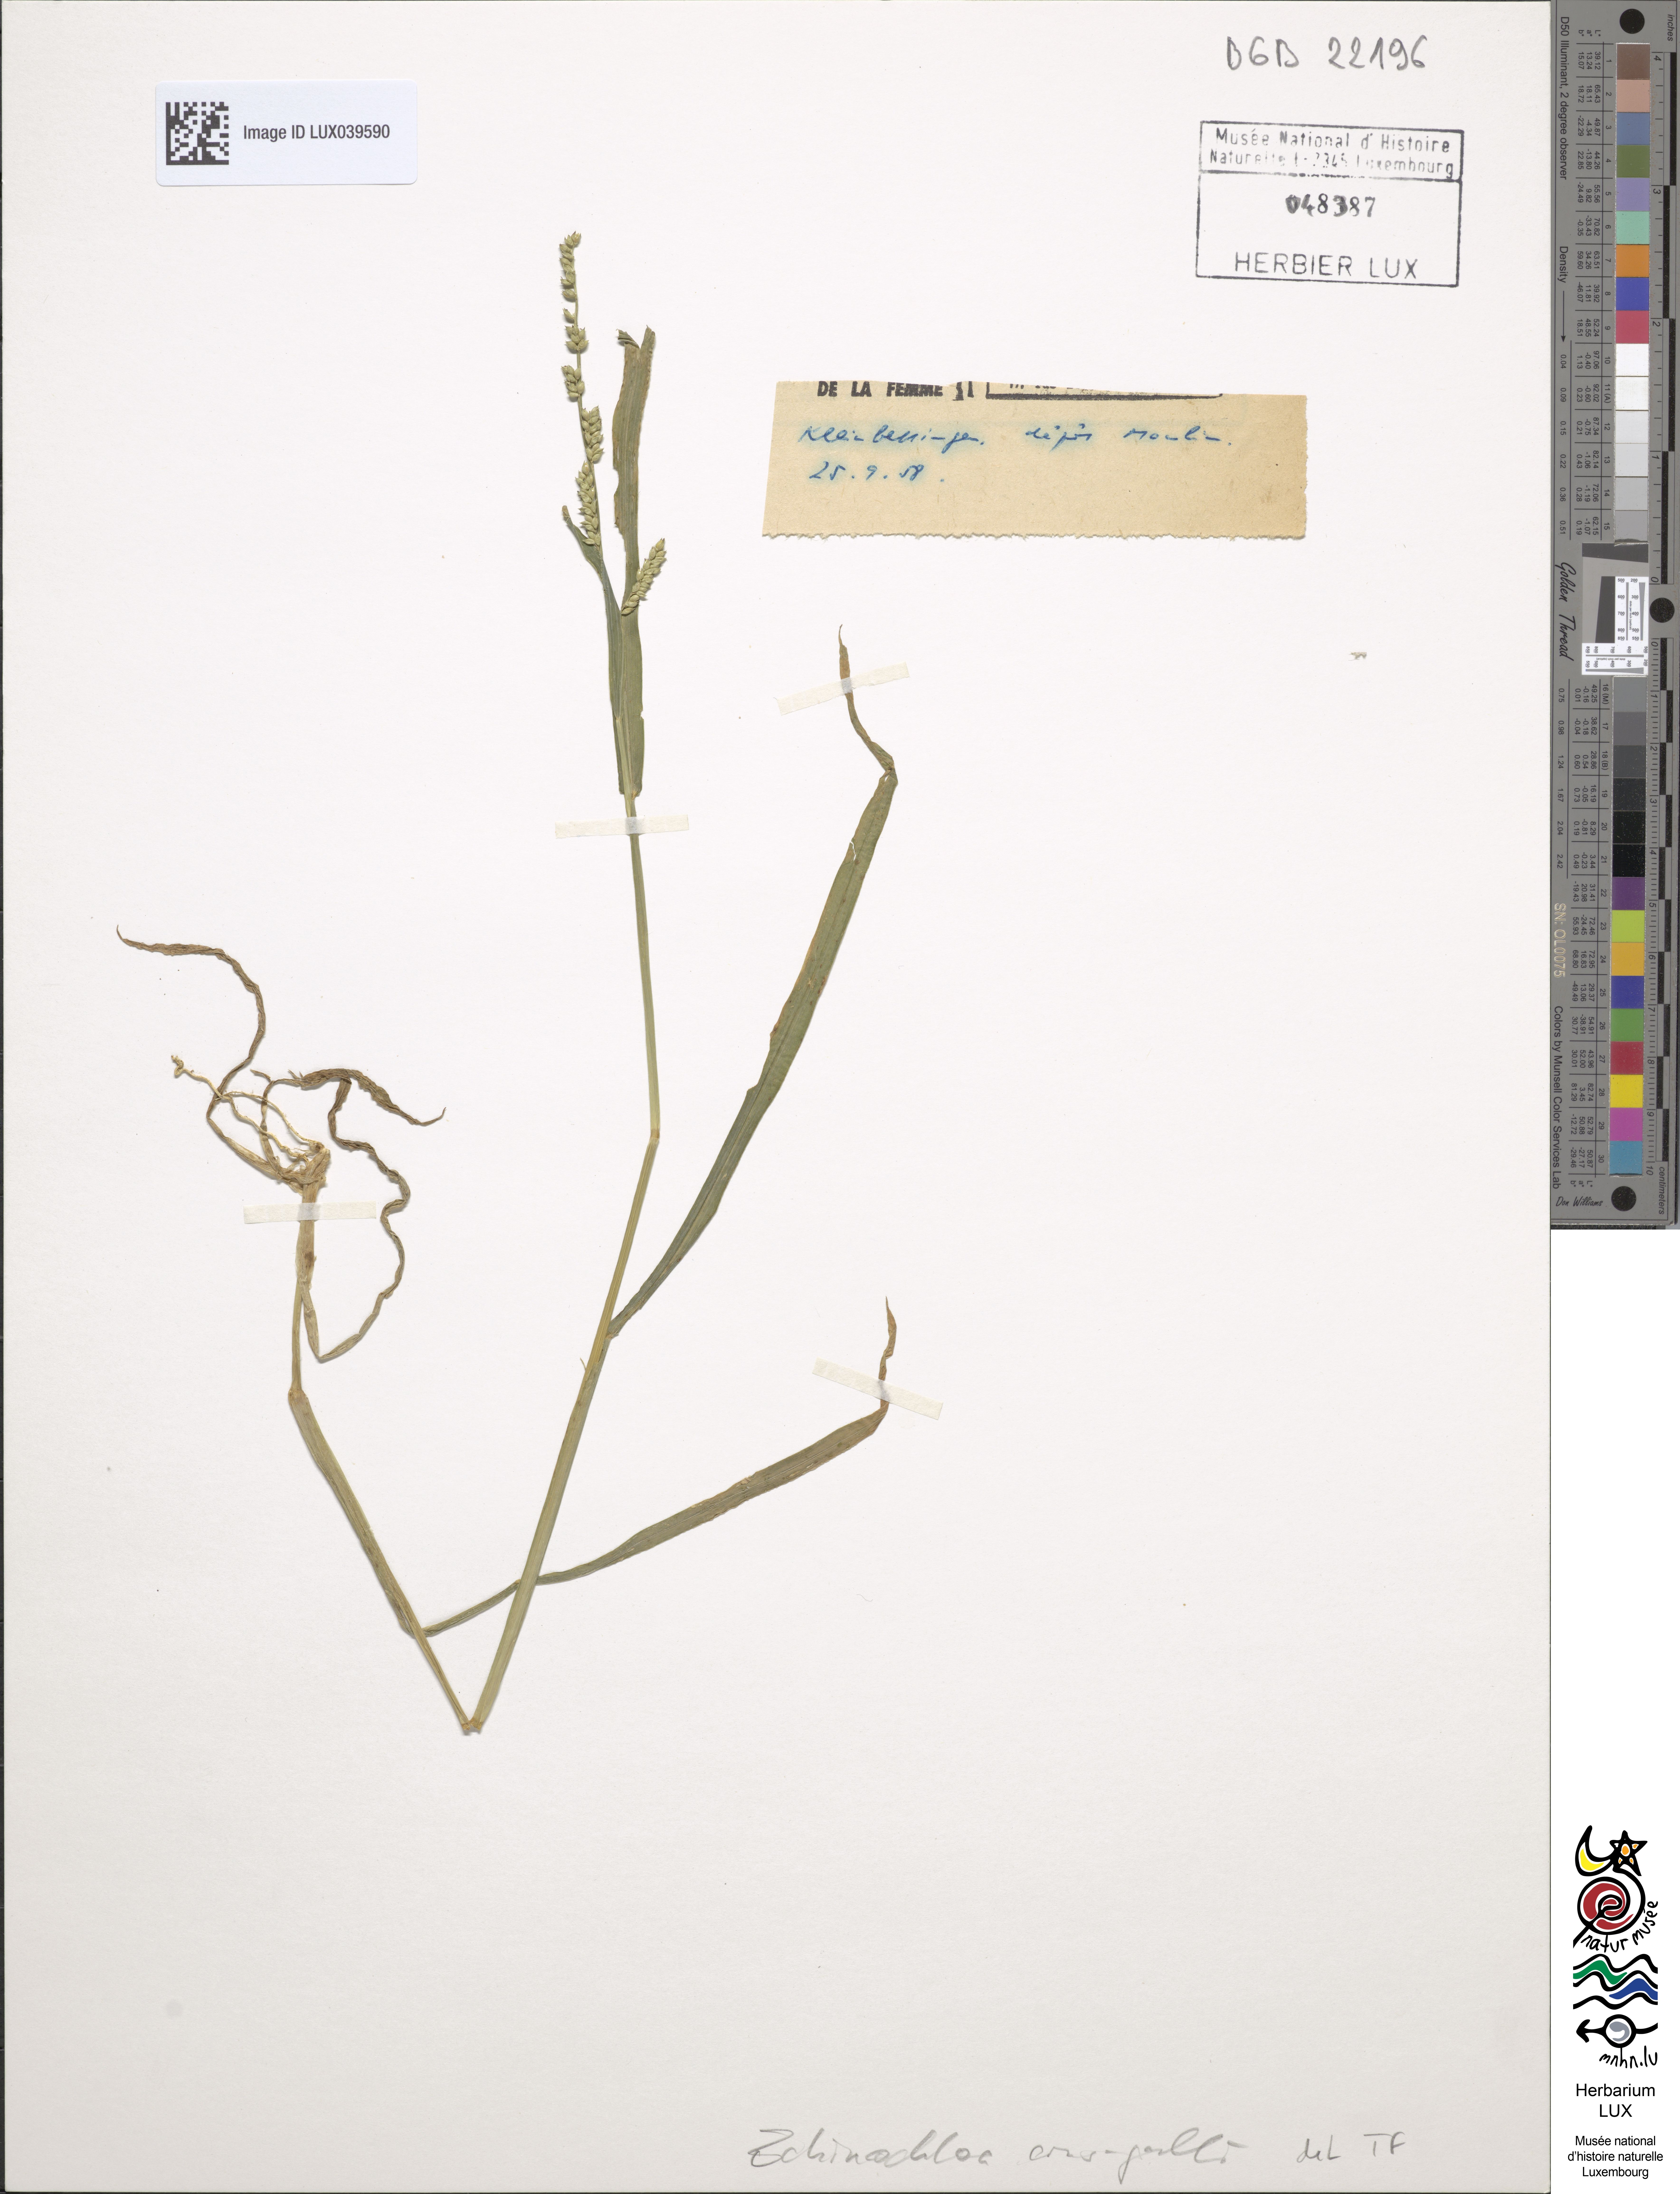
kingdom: Plantae
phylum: Tracheophyta
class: Liliopsida
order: Poales
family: Poaceae
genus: Echinochloa
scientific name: Echinochloa crus-galli
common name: Cockspur
